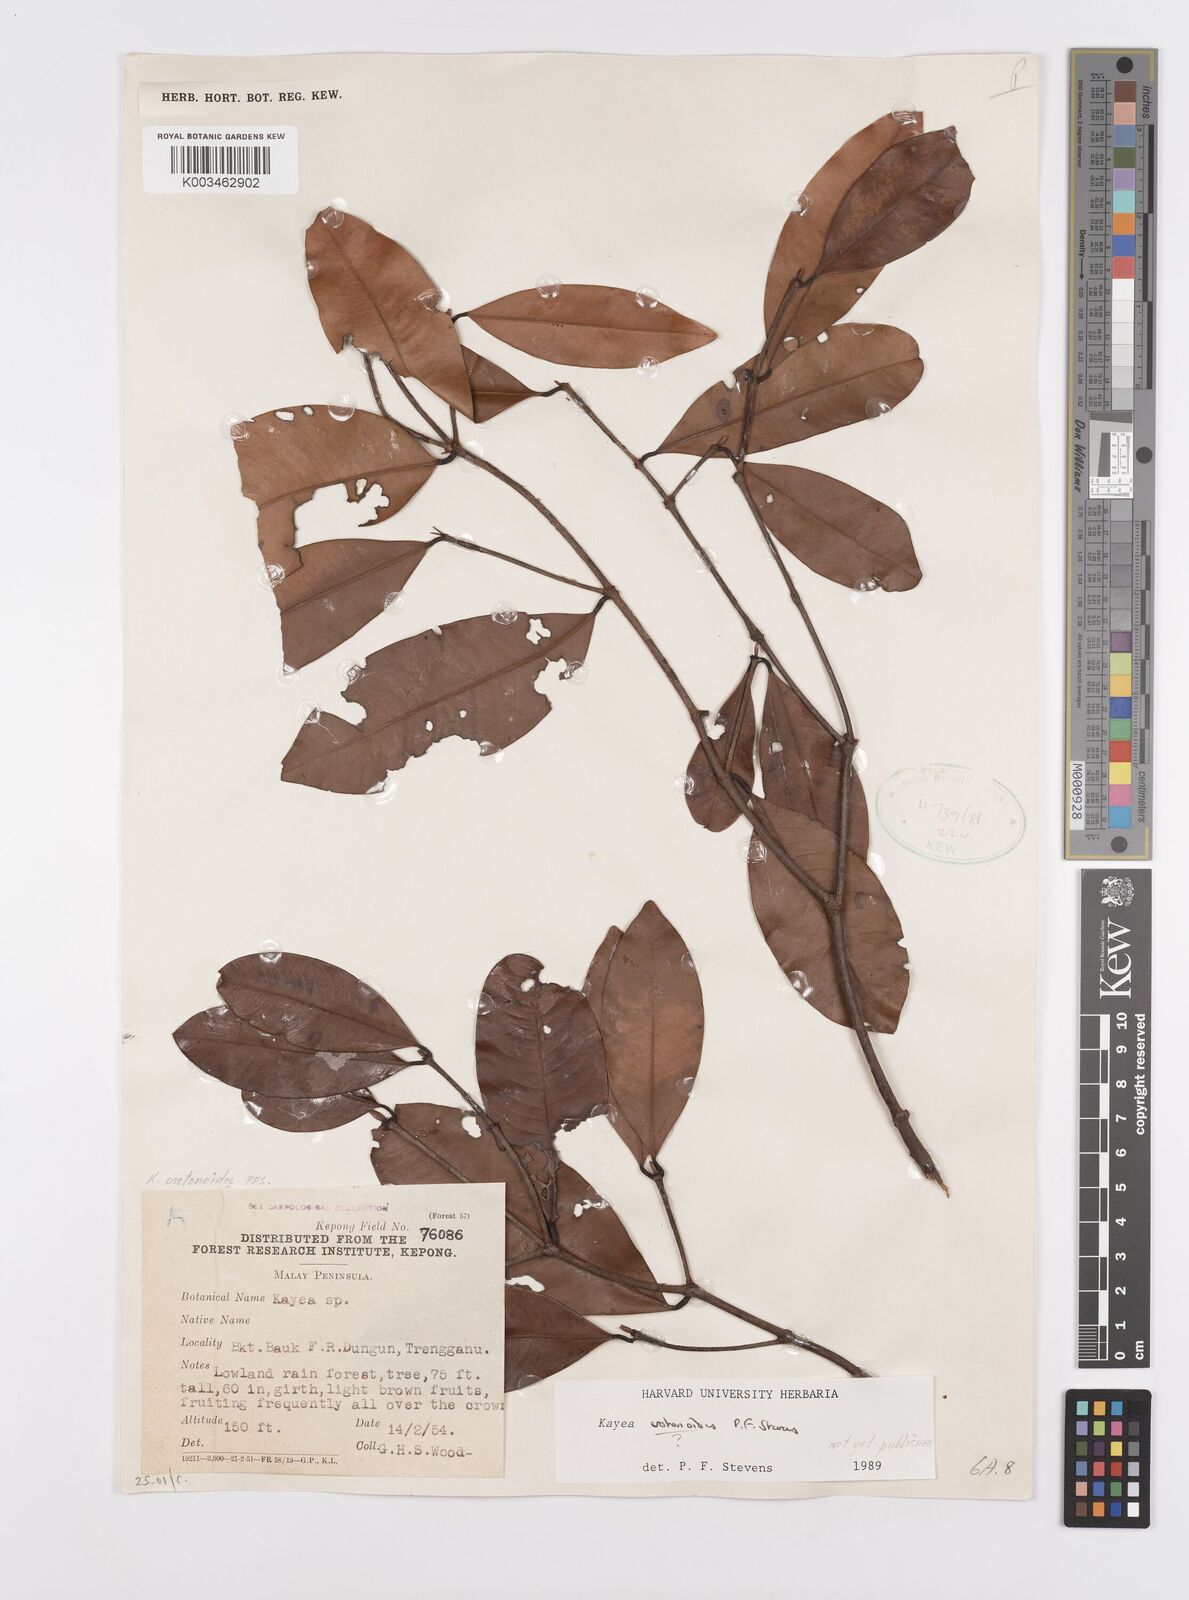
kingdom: Plantae
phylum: Tracheophyta
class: Magnoliopsida
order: Malpighiales
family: Calophyllaceae
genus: Kayea
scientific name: Kayea
